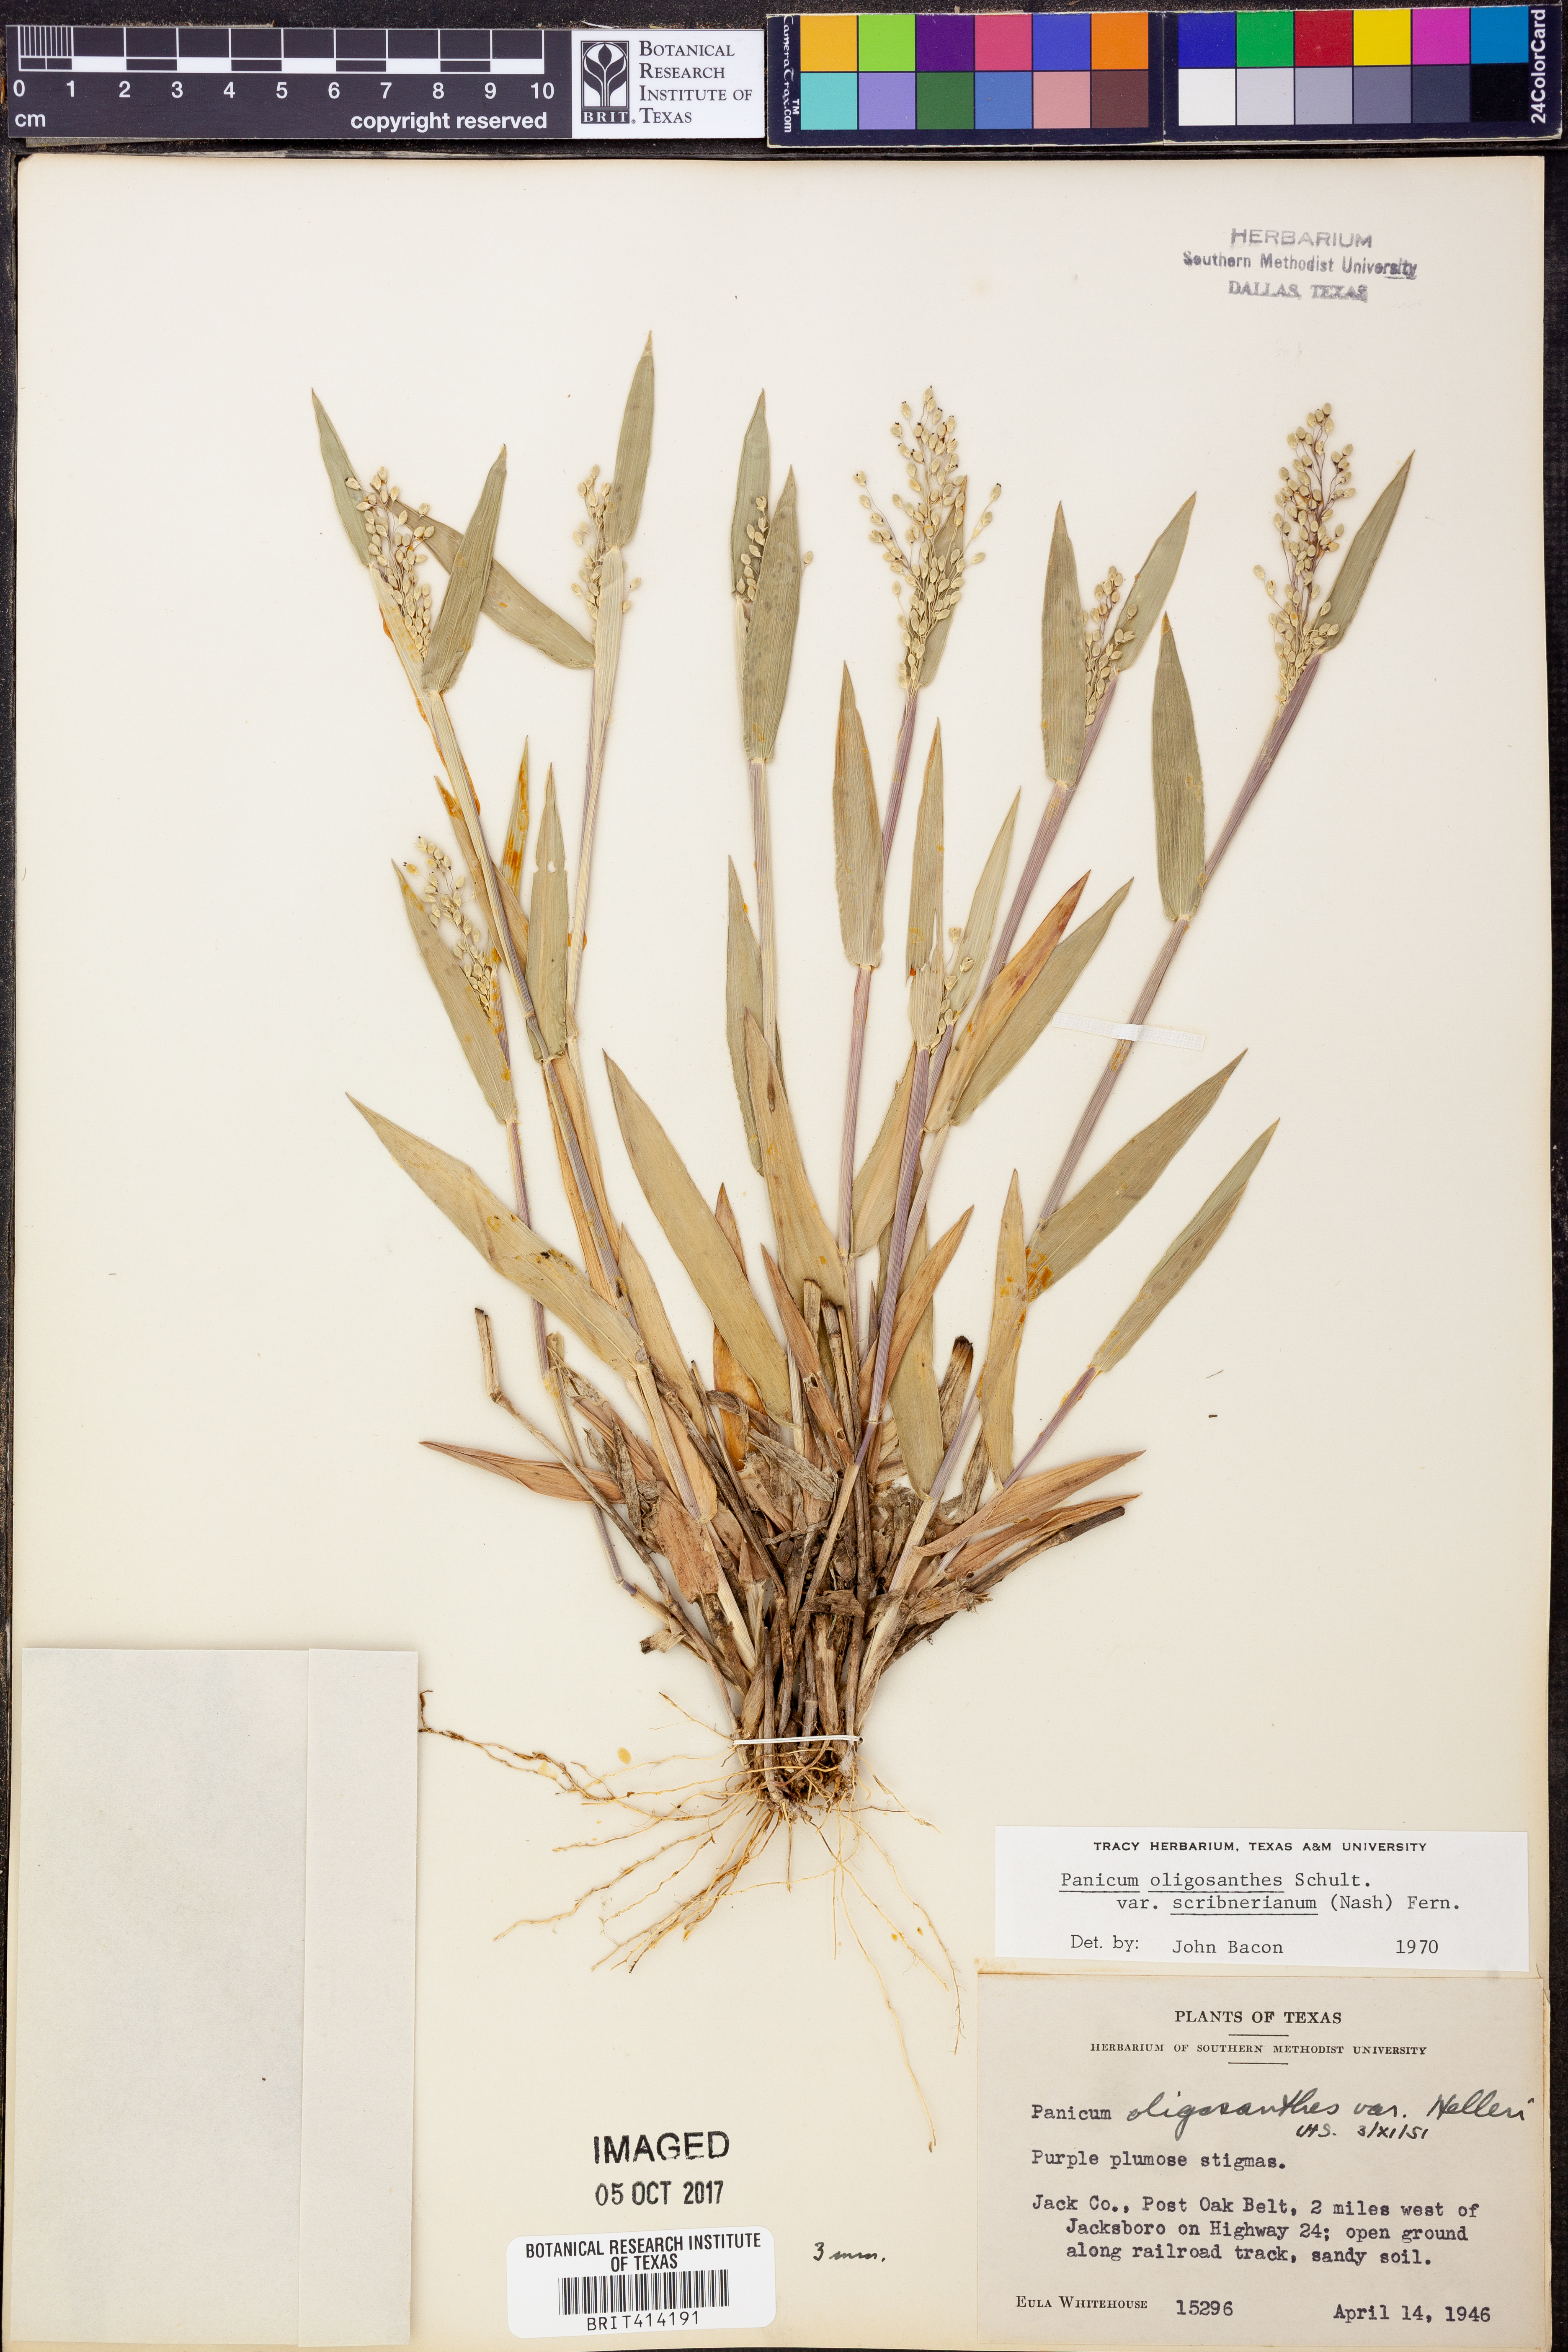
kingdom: Plantae
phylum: Tracheophyta
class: Liliopsida
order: Poales
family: Poaceae
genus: Dichanthelium
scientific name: Dichanthelium scribnerianum
